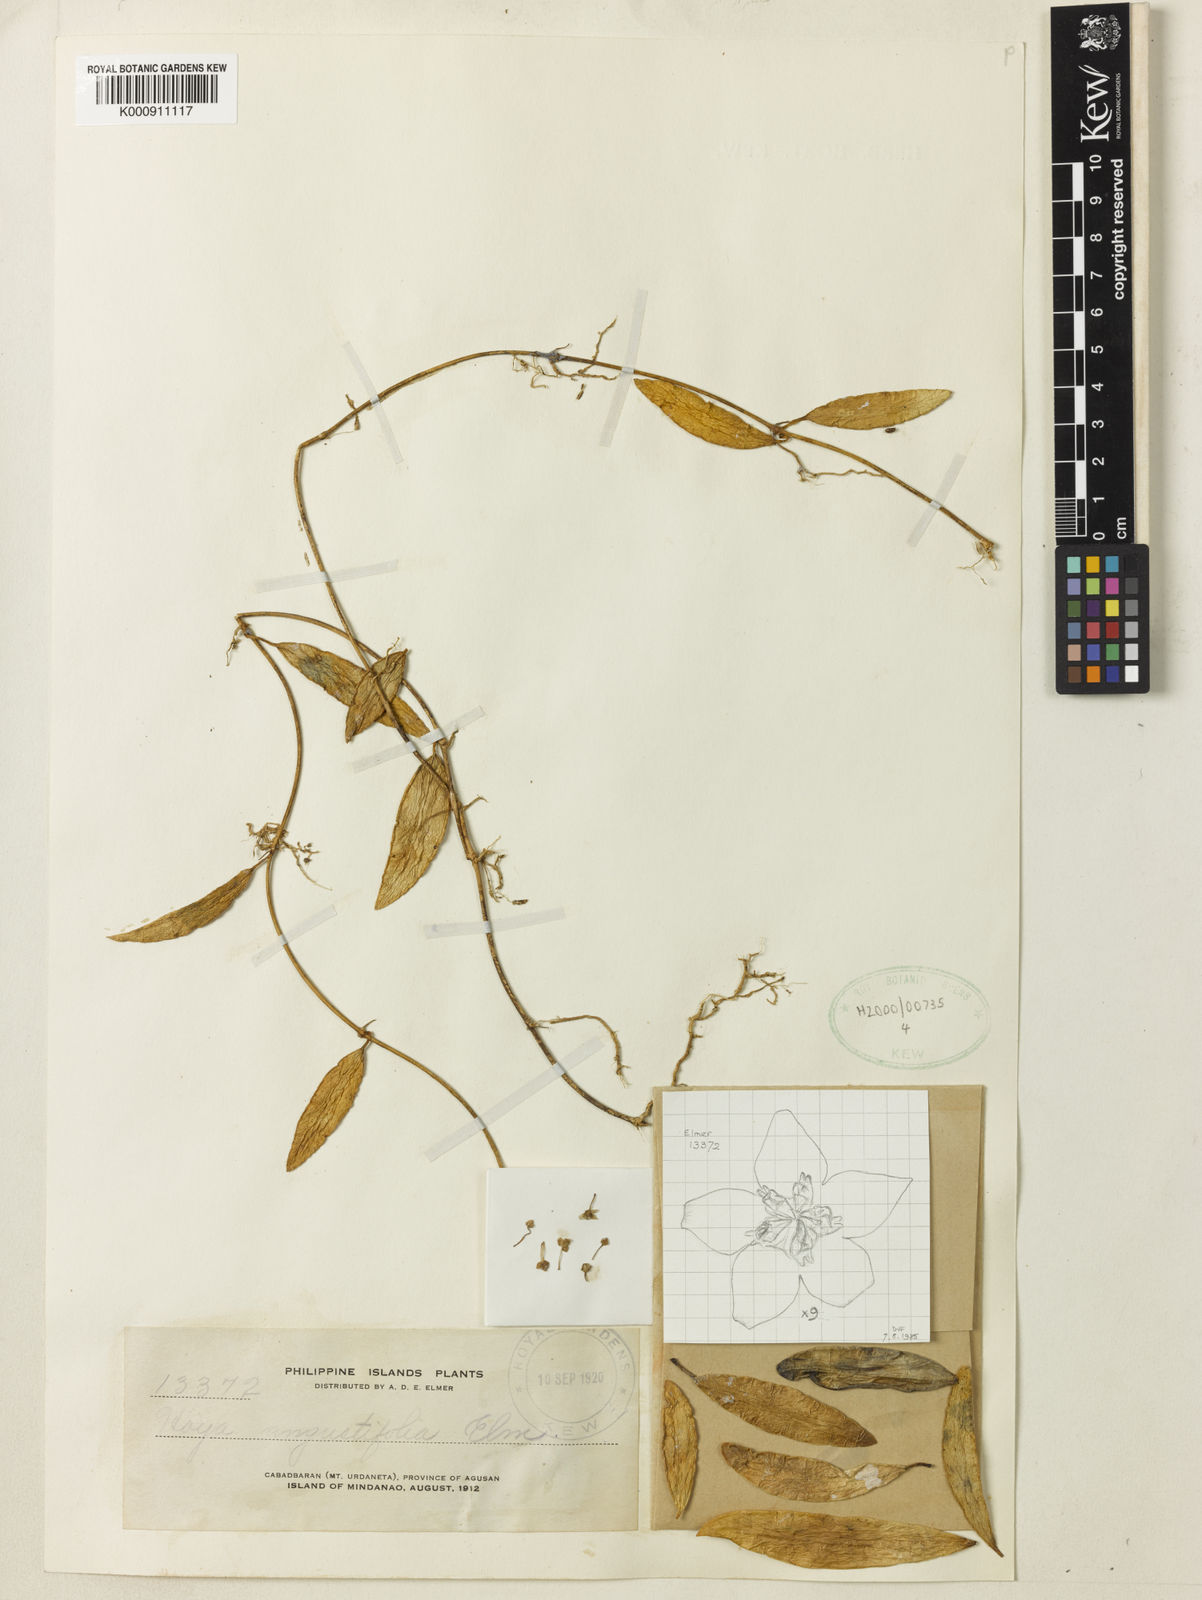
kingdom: Plantae
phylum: Tracheophyta
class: Magnoliopsida
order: Gentianales
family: Apocynaceae
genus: Hoya
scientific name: Hoya
